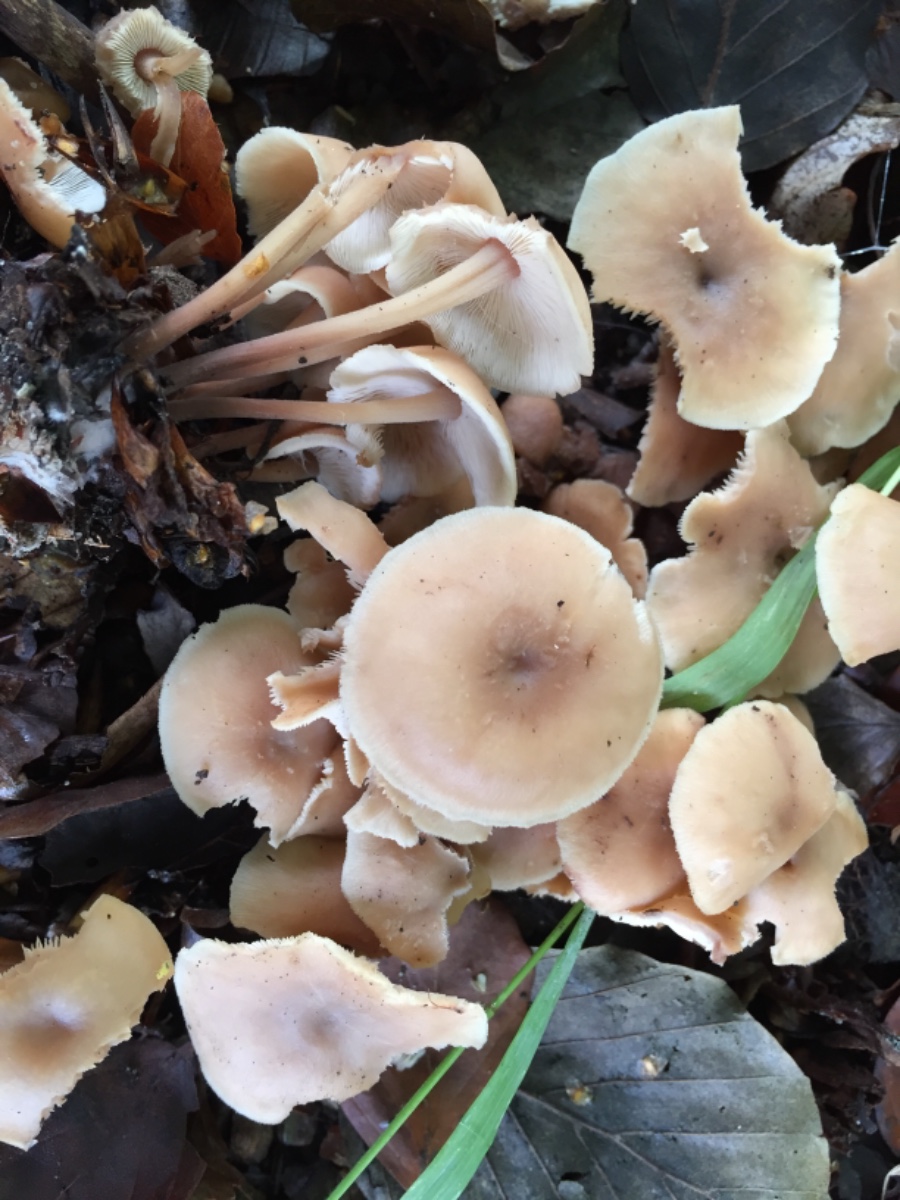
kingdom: Fungi
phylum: Basidiomycota
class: Agaricomycetes
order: Agaricales
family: Omphalotaceae
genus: Collybiopsis
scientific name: Collybiopsis confluens
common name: knippe-fladhat
